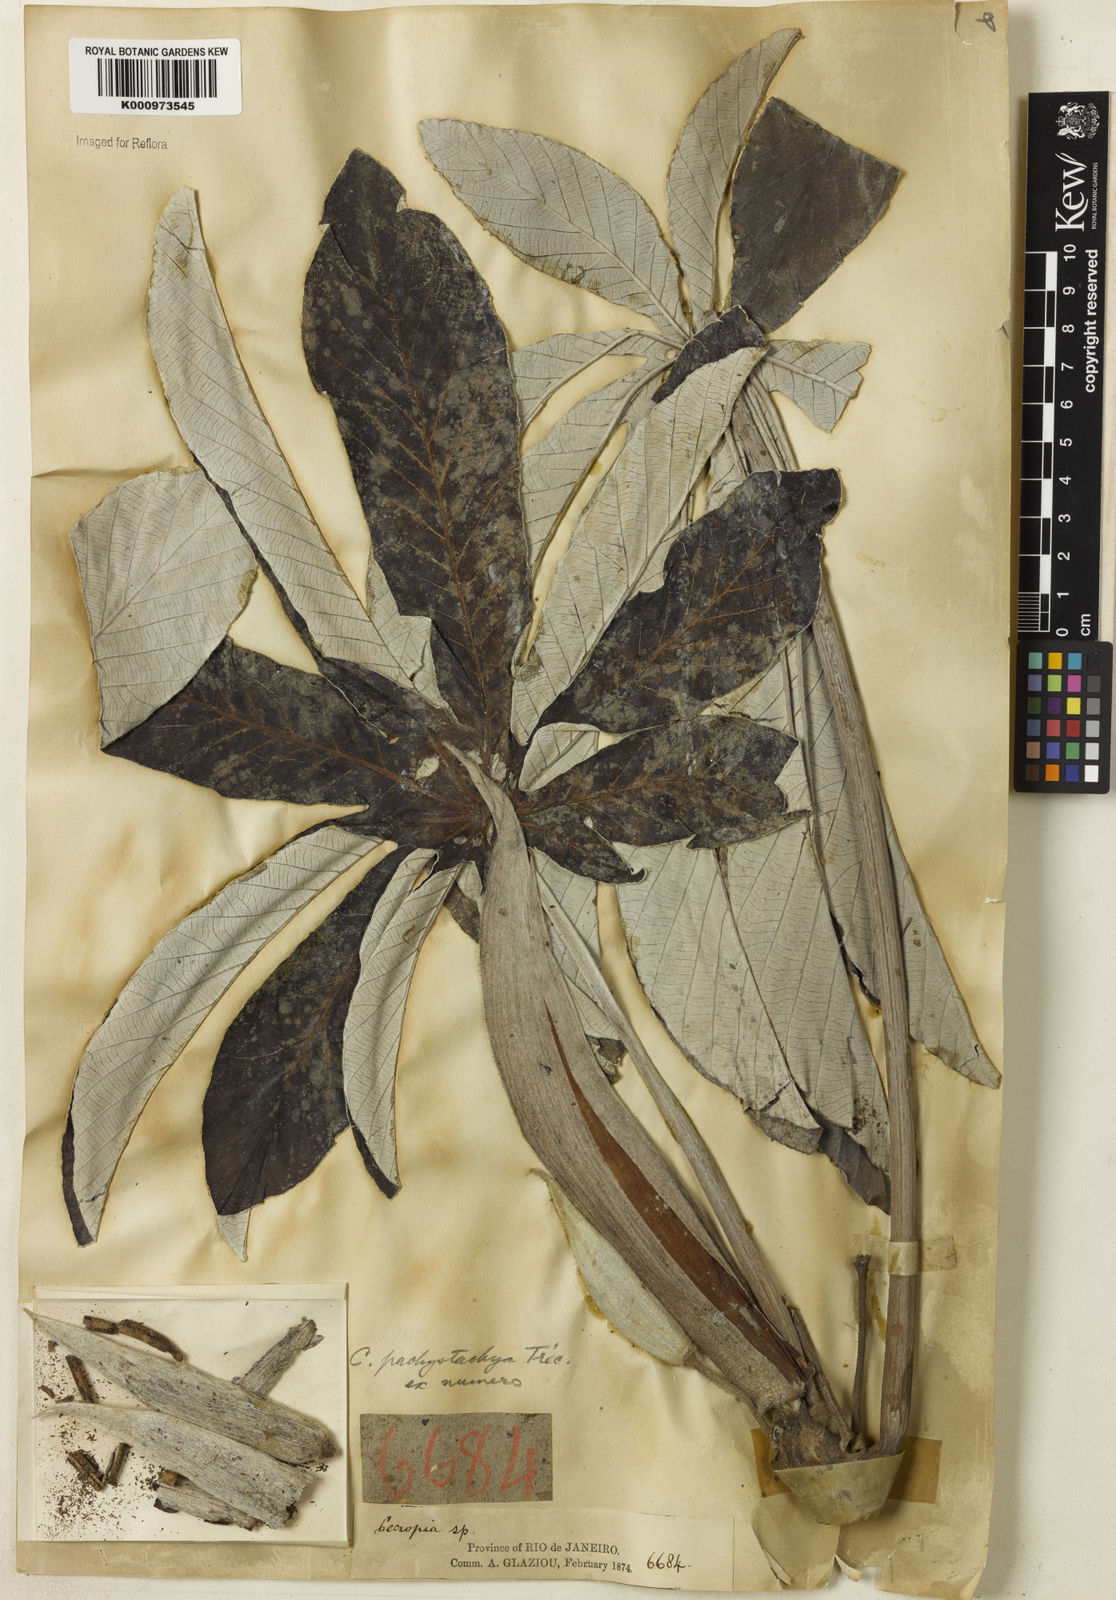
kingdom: Plantae
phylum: Tracheophyta
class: Magnoliopsida
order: Rosales
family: Urticaceae
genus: Cecropia
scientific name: Cecropia
